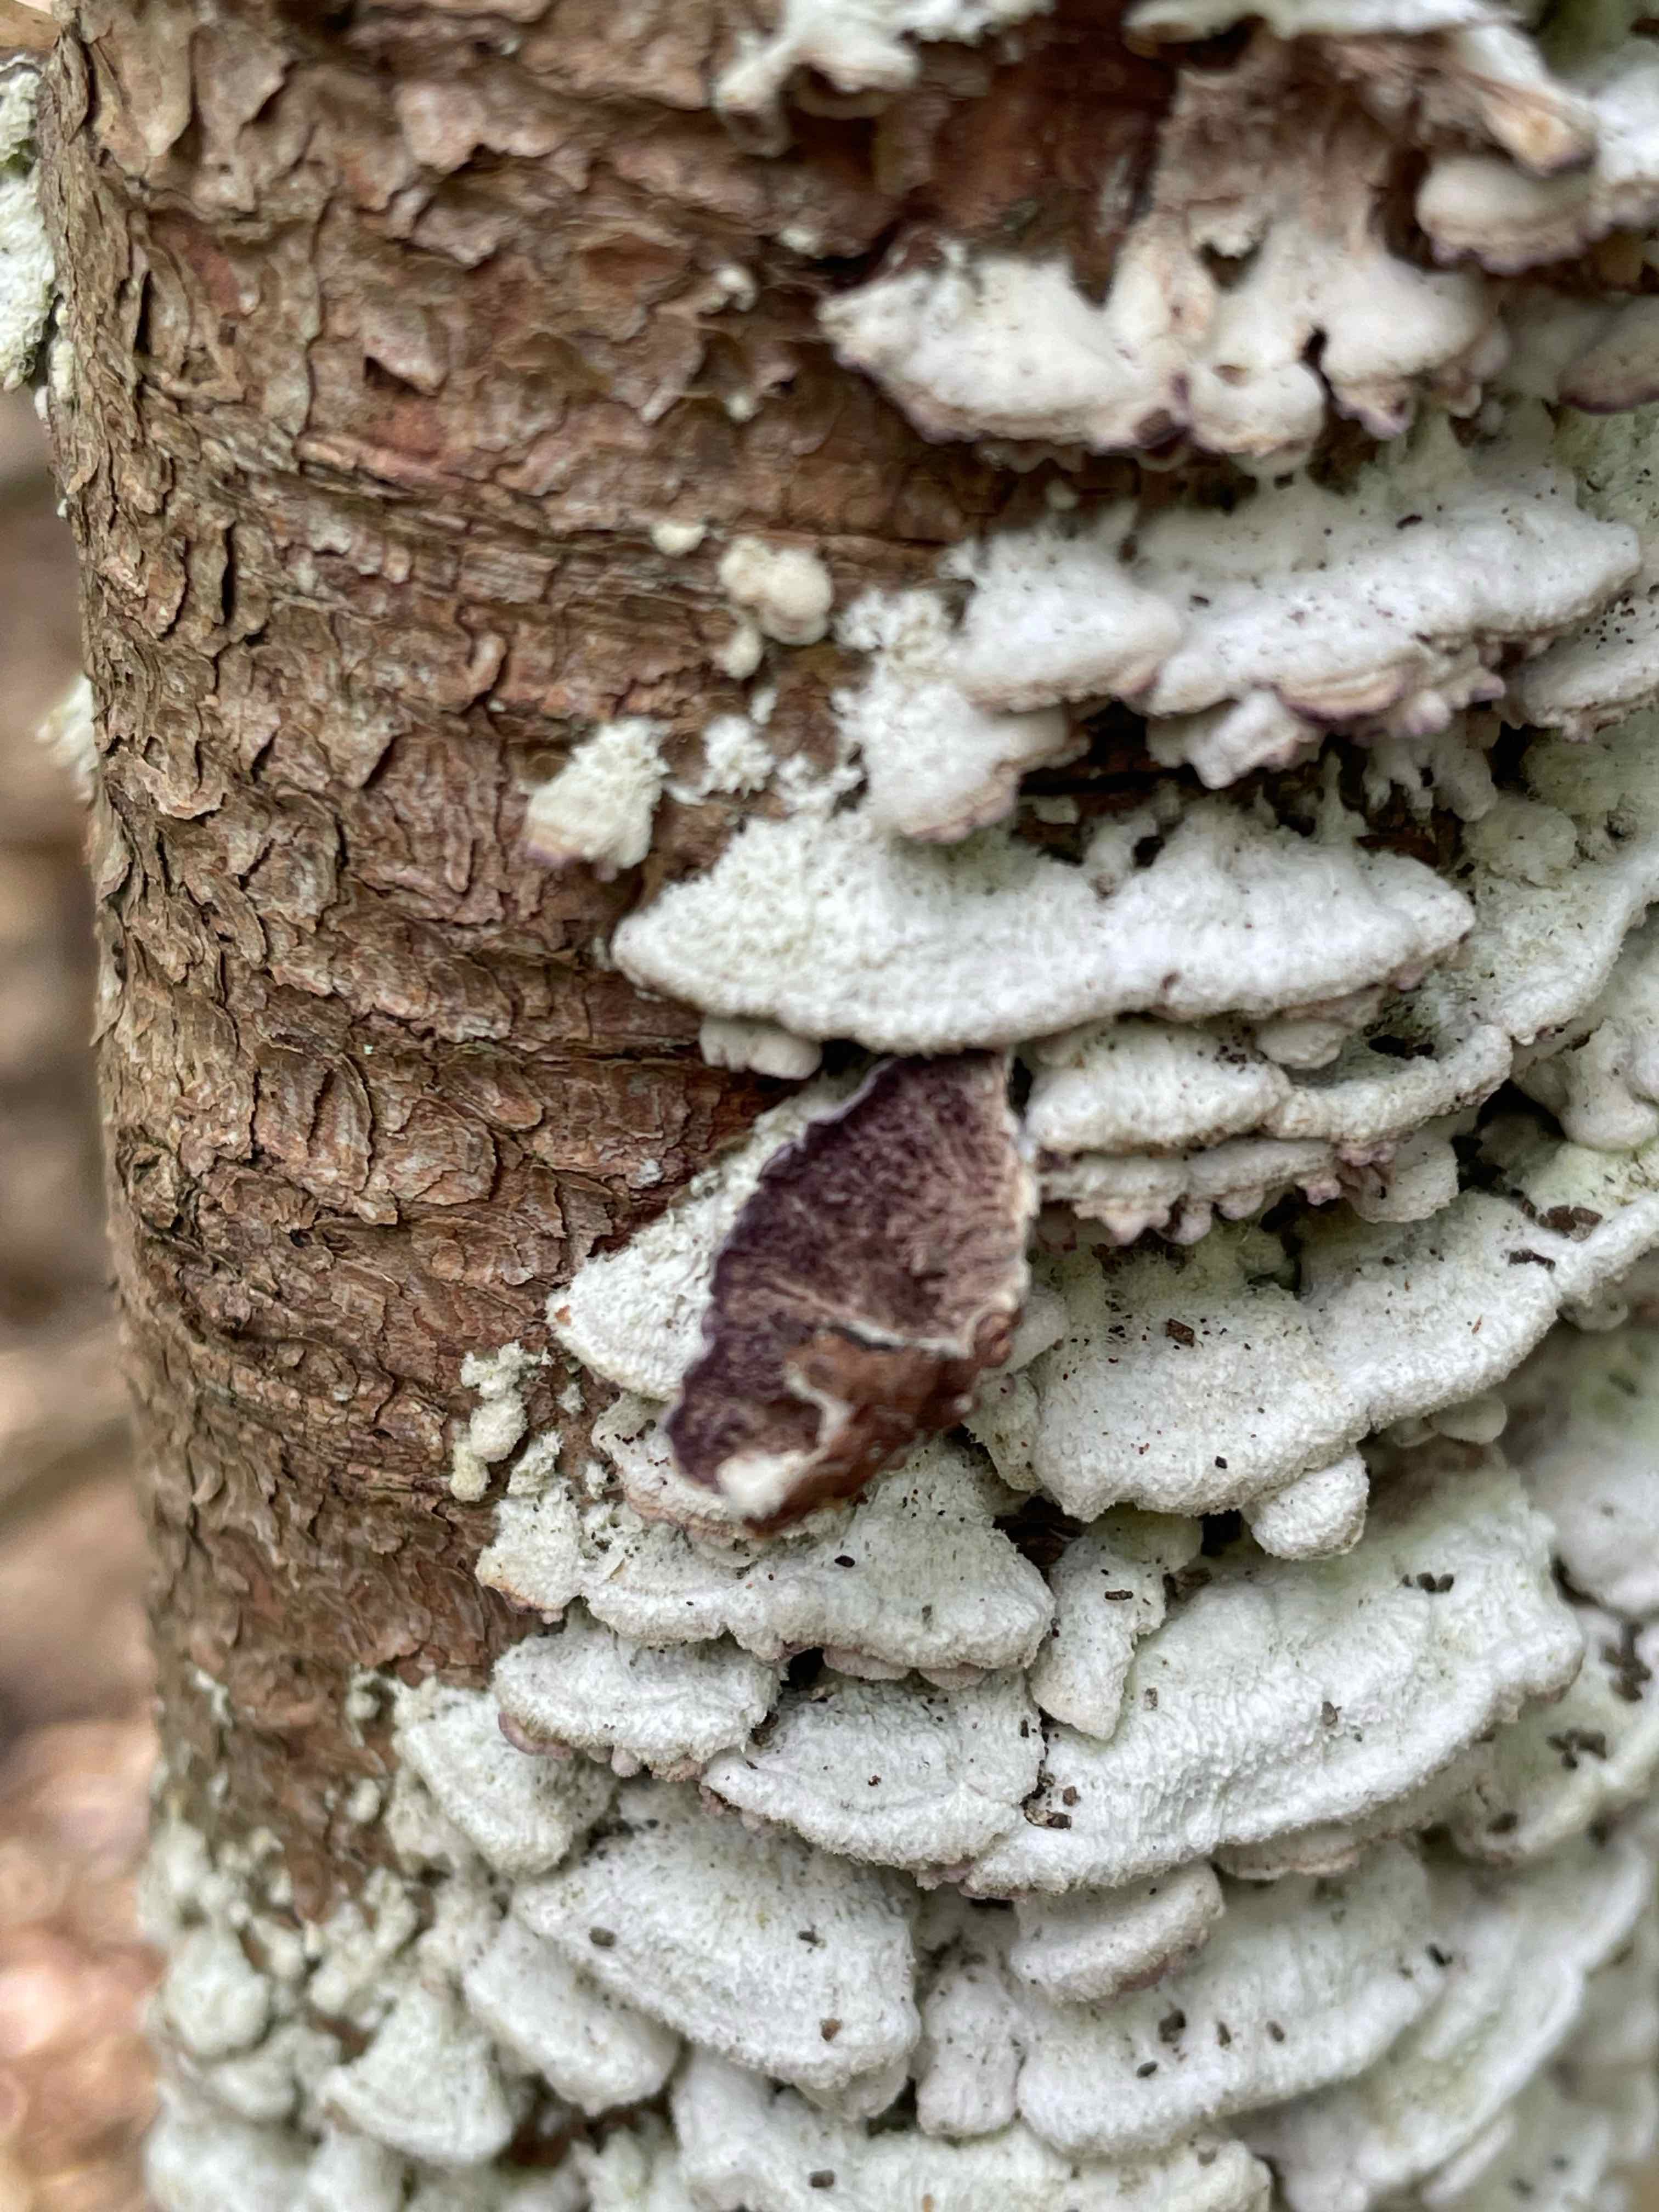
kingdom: Fungi
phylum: Basidiomycota
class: Agaricomycetes
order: Hymenochaetales
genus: Trichaptum
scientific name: Trichaptum abietinum
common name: almindelig violporesvamp
